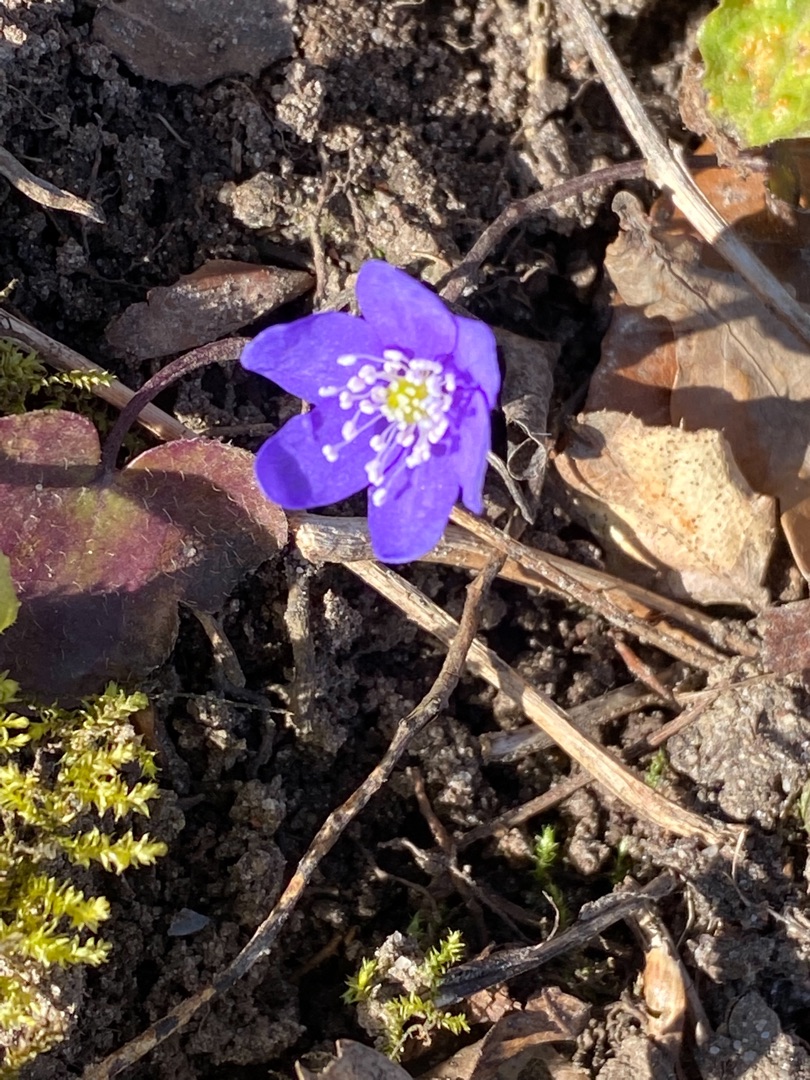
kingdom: Plantae
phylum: Tracheophyta
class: Magnoliopsida
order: Ranunculales
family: Ranunculaceae
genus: Hepatica
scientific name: Hepatica nobilis
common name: Blå anemone
